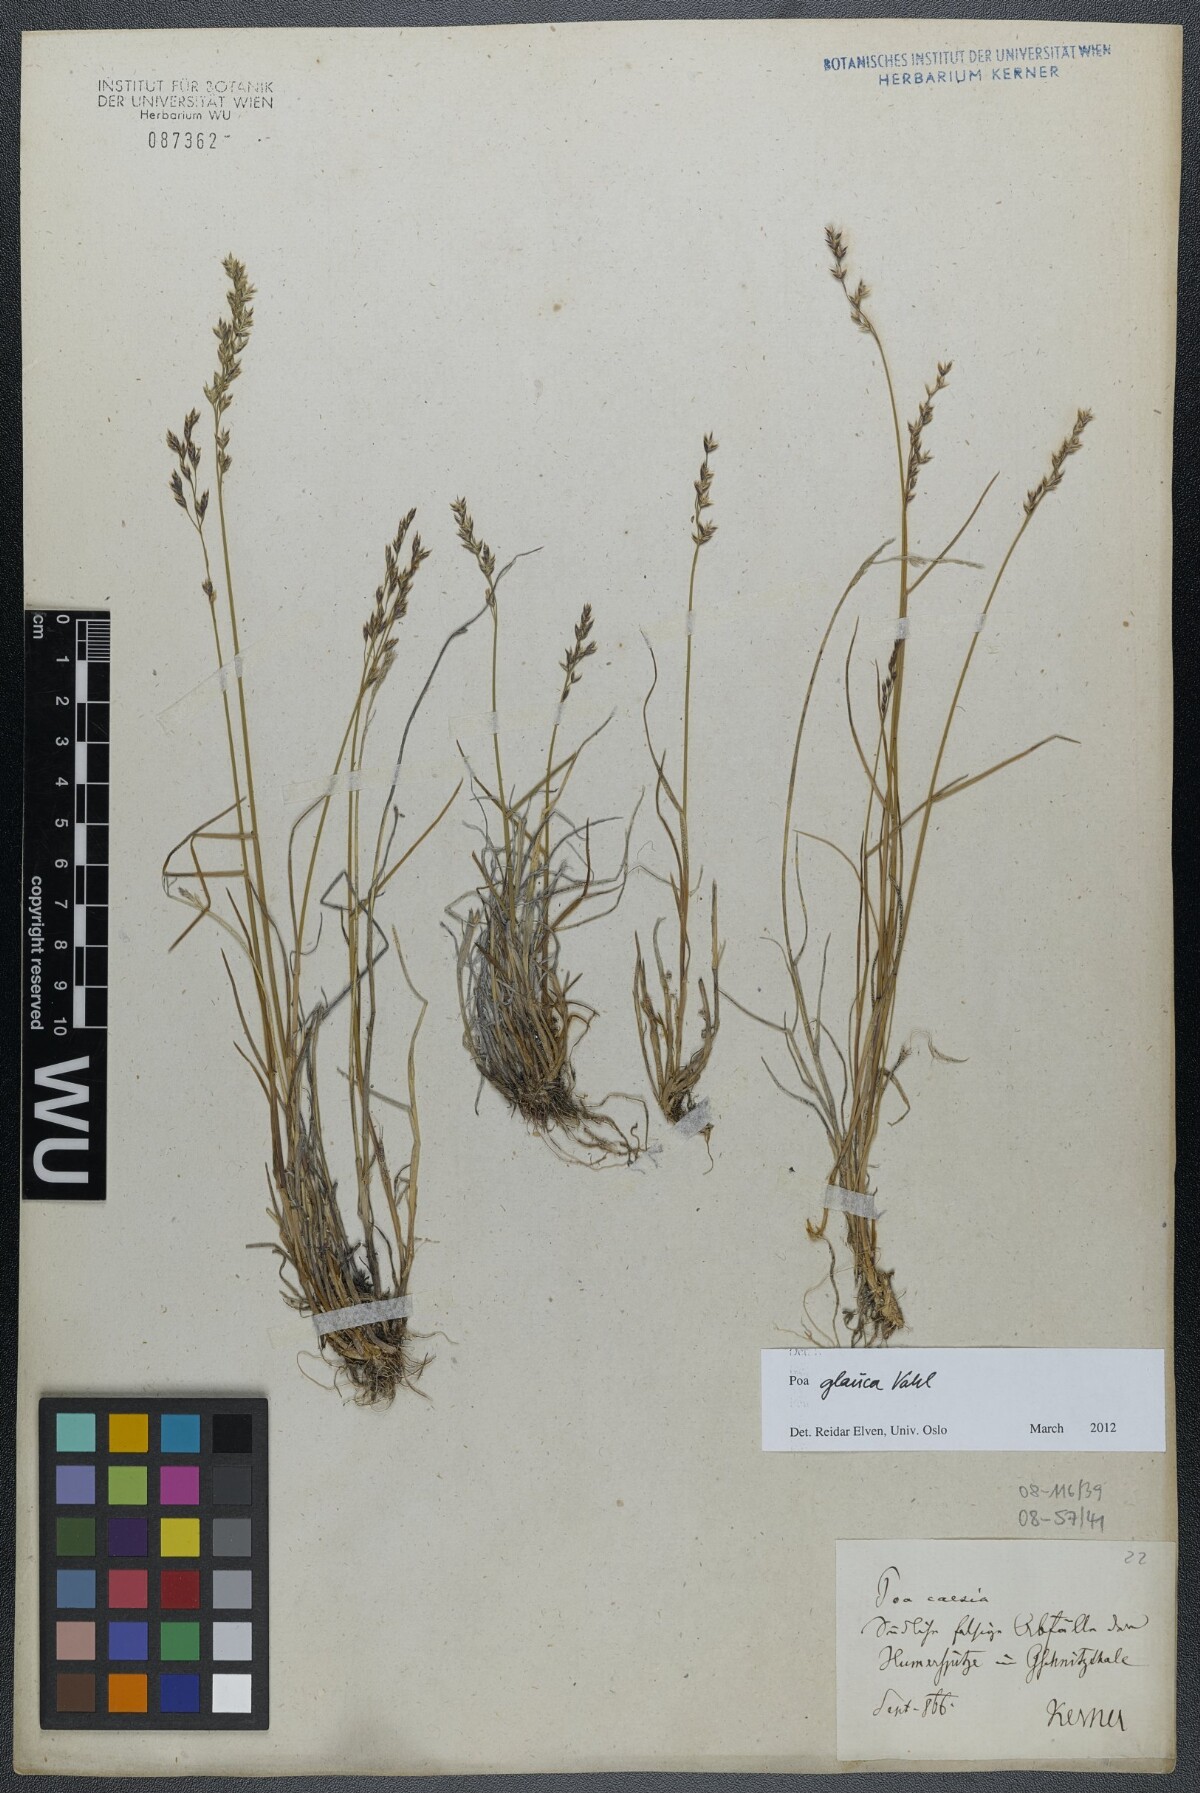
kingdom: Plantae
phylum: Tracheophyta
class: Liliopsida
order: Poales
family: Poaceae
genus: Poa
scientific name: Poa glauca
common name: Glaucous bluegrass
